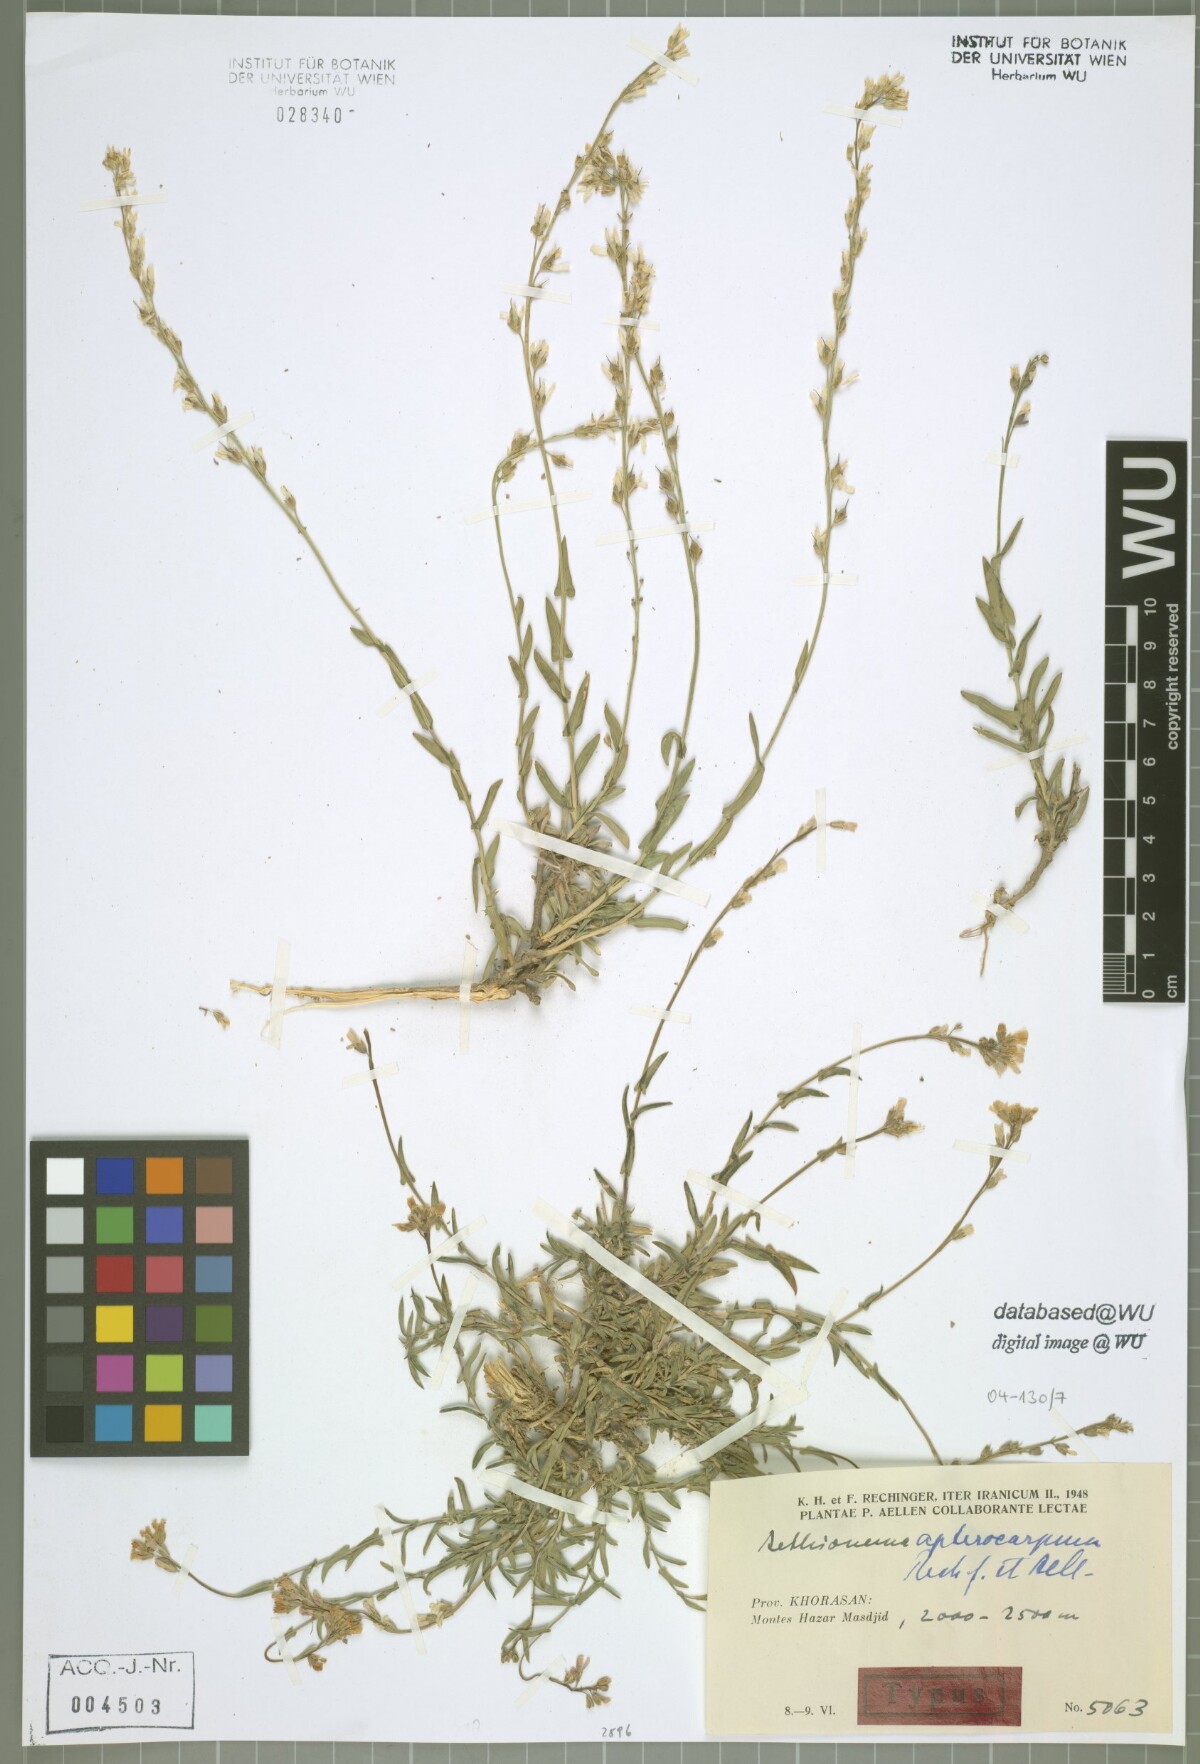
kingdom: Plantae
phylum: Tracheophyta
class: Magnoliopsida
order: Brassicales
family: Brassicaceae
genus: Noccaea
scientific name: Noccaea apterocarpa
